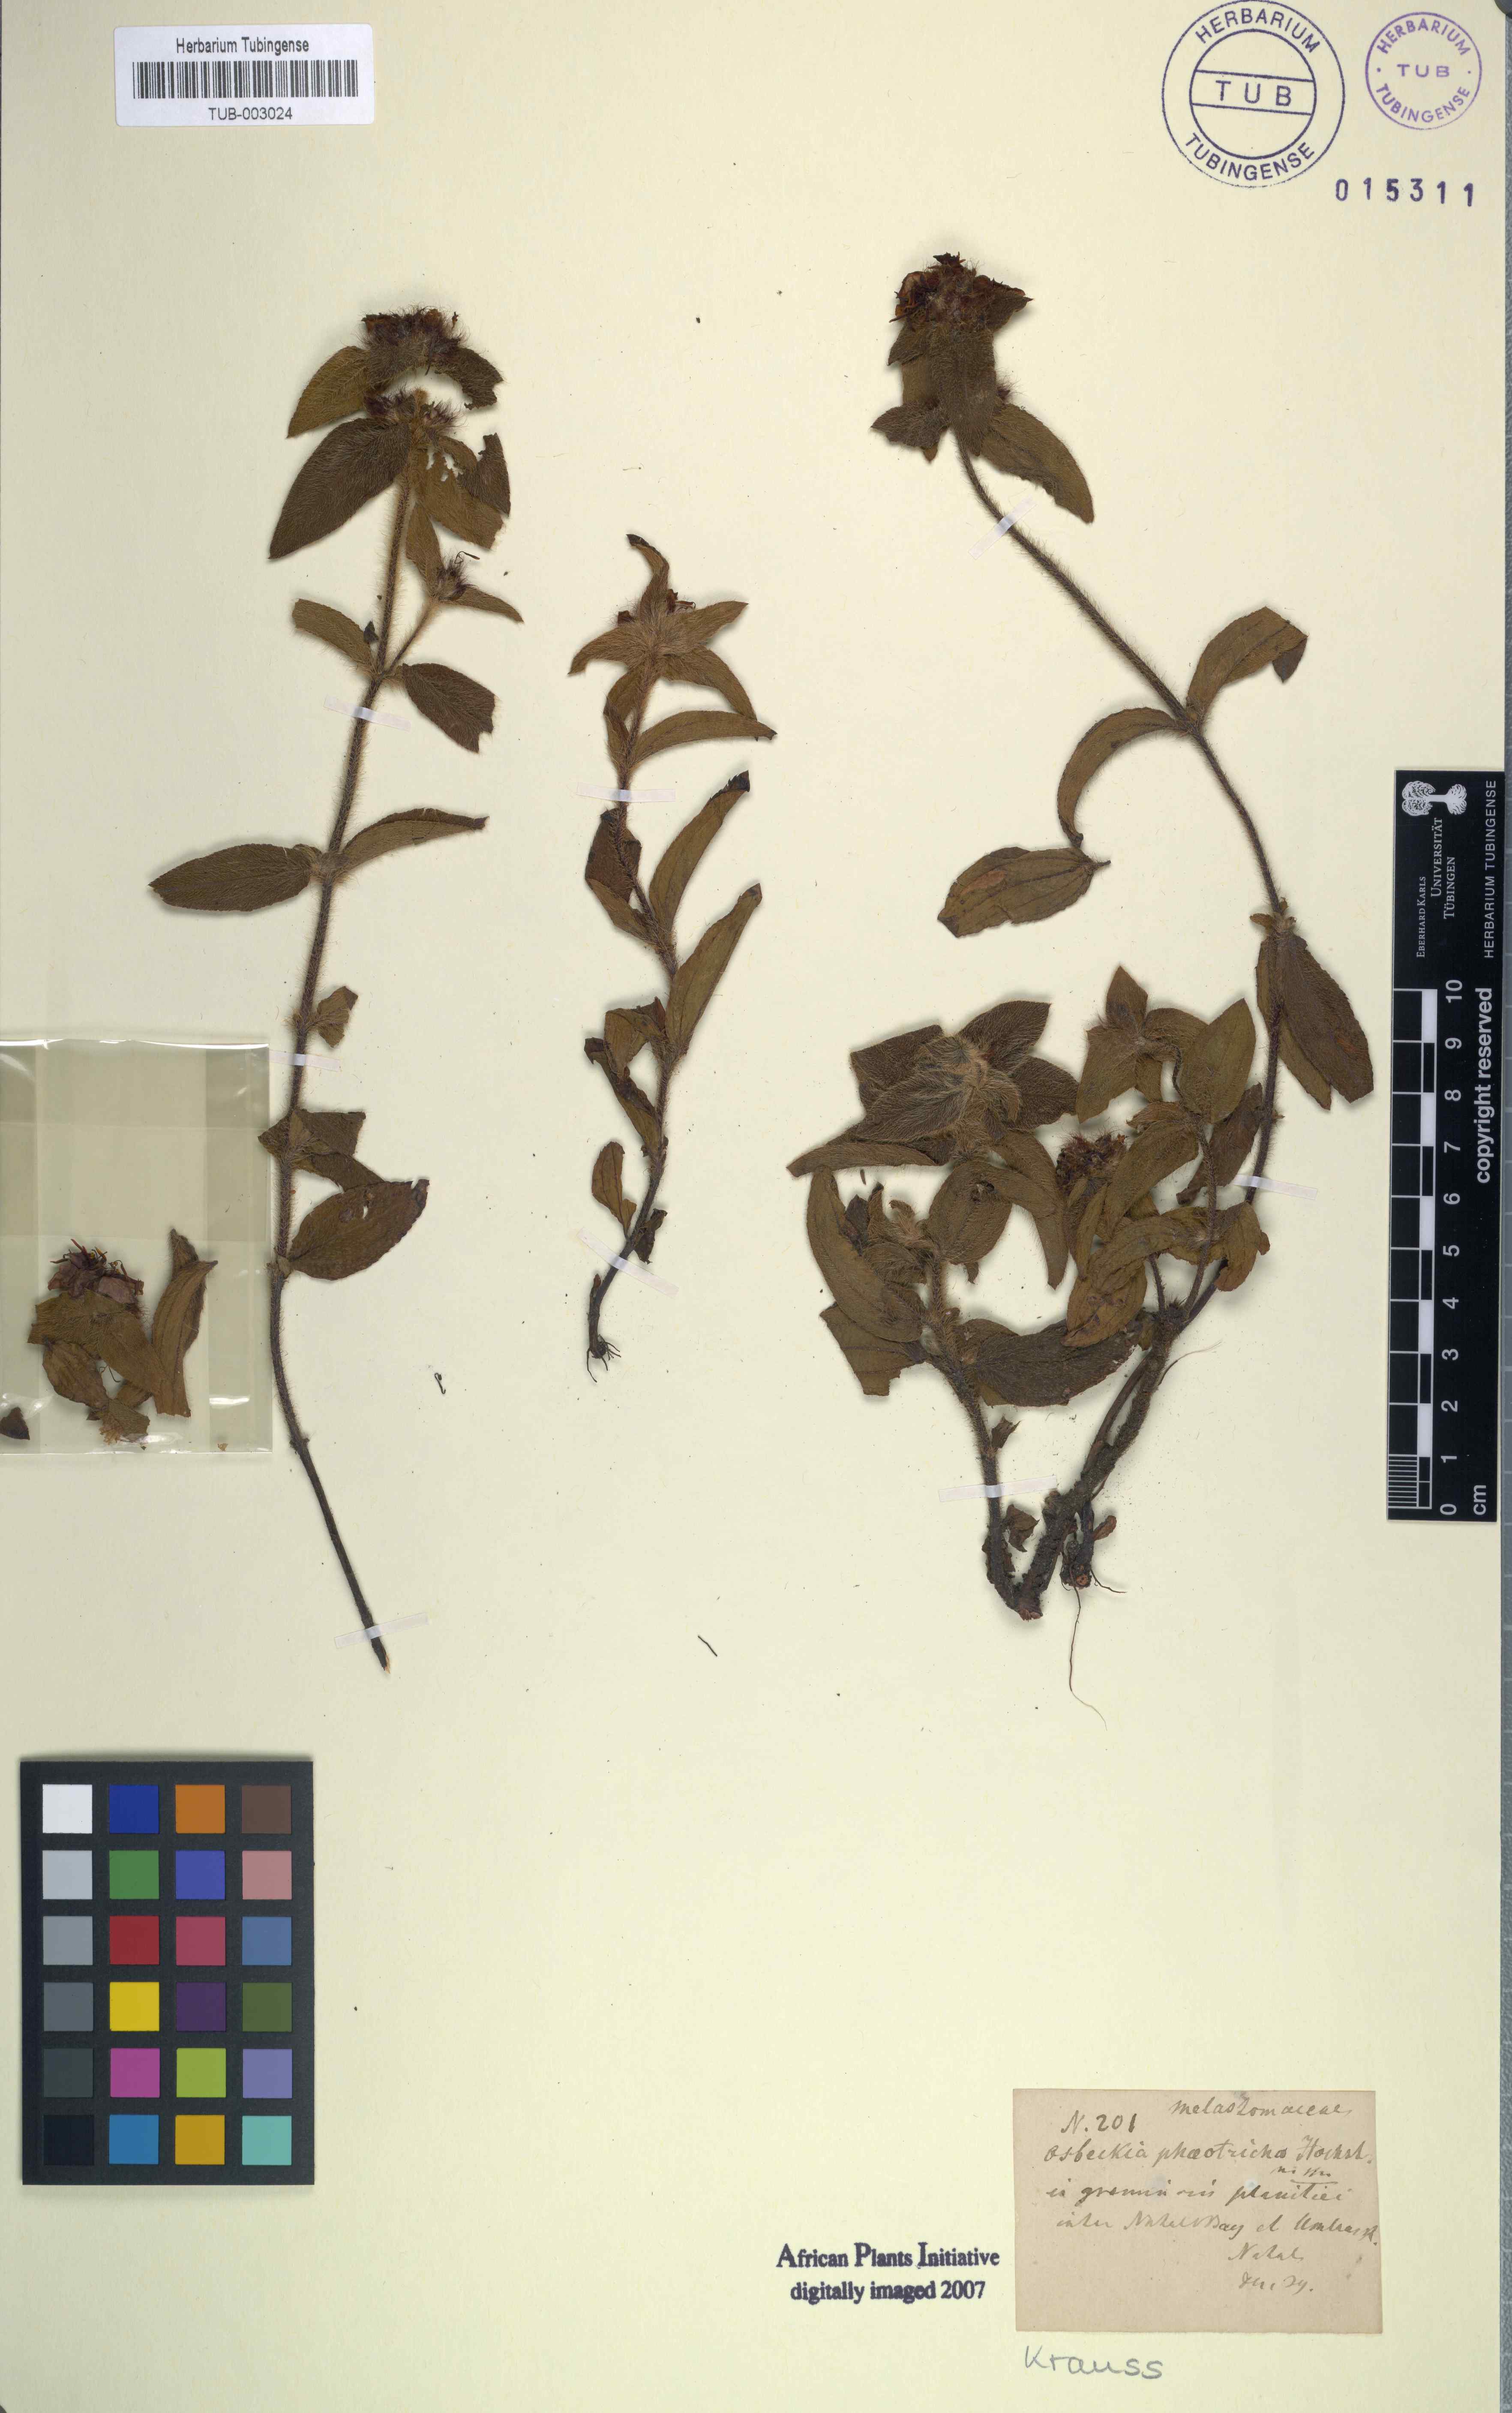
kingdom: Plantae
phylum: Tracheophyta
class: Magnoliopsida
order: Myrtales
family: Melastomataceae
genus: Antherotoma
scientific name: Antherotoma phaeotricha
